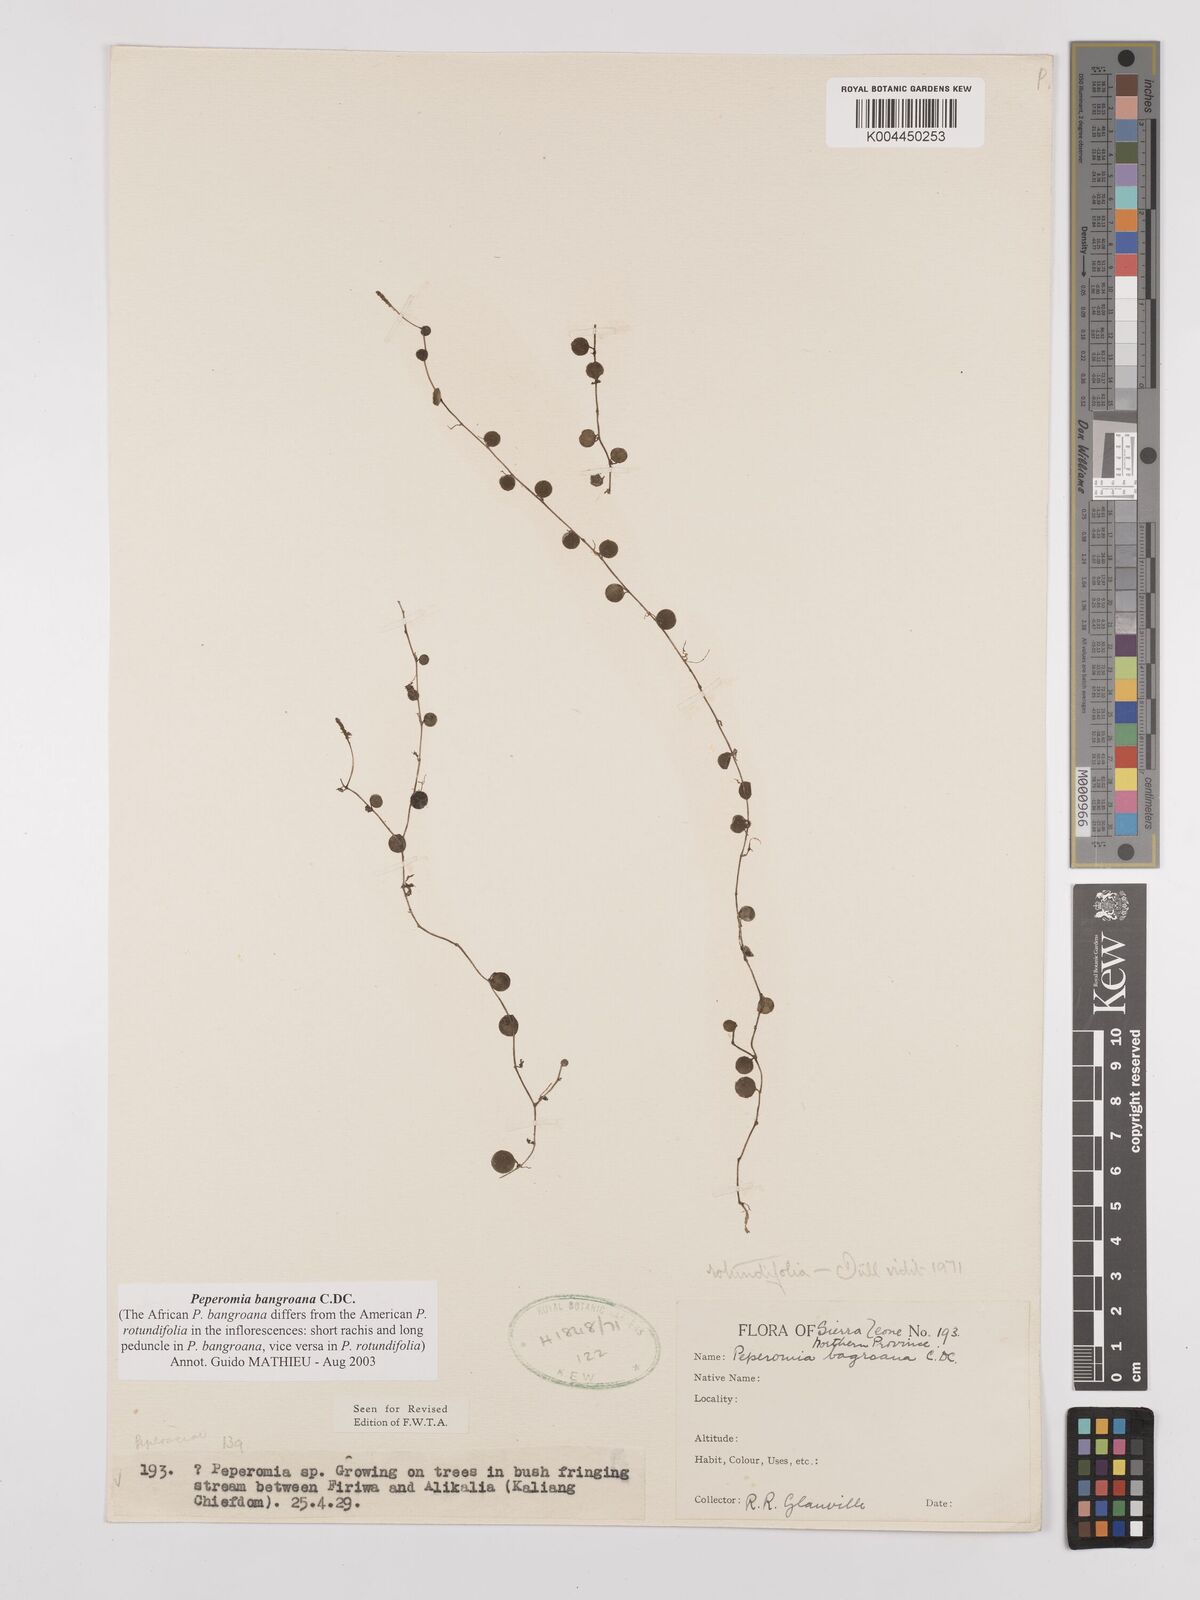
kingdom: Plantae
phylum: Tracheophyta
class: Magnoliopsida
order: Piperales
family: Piperaceae
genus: Peperomia
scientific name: Peperomia bangroana
